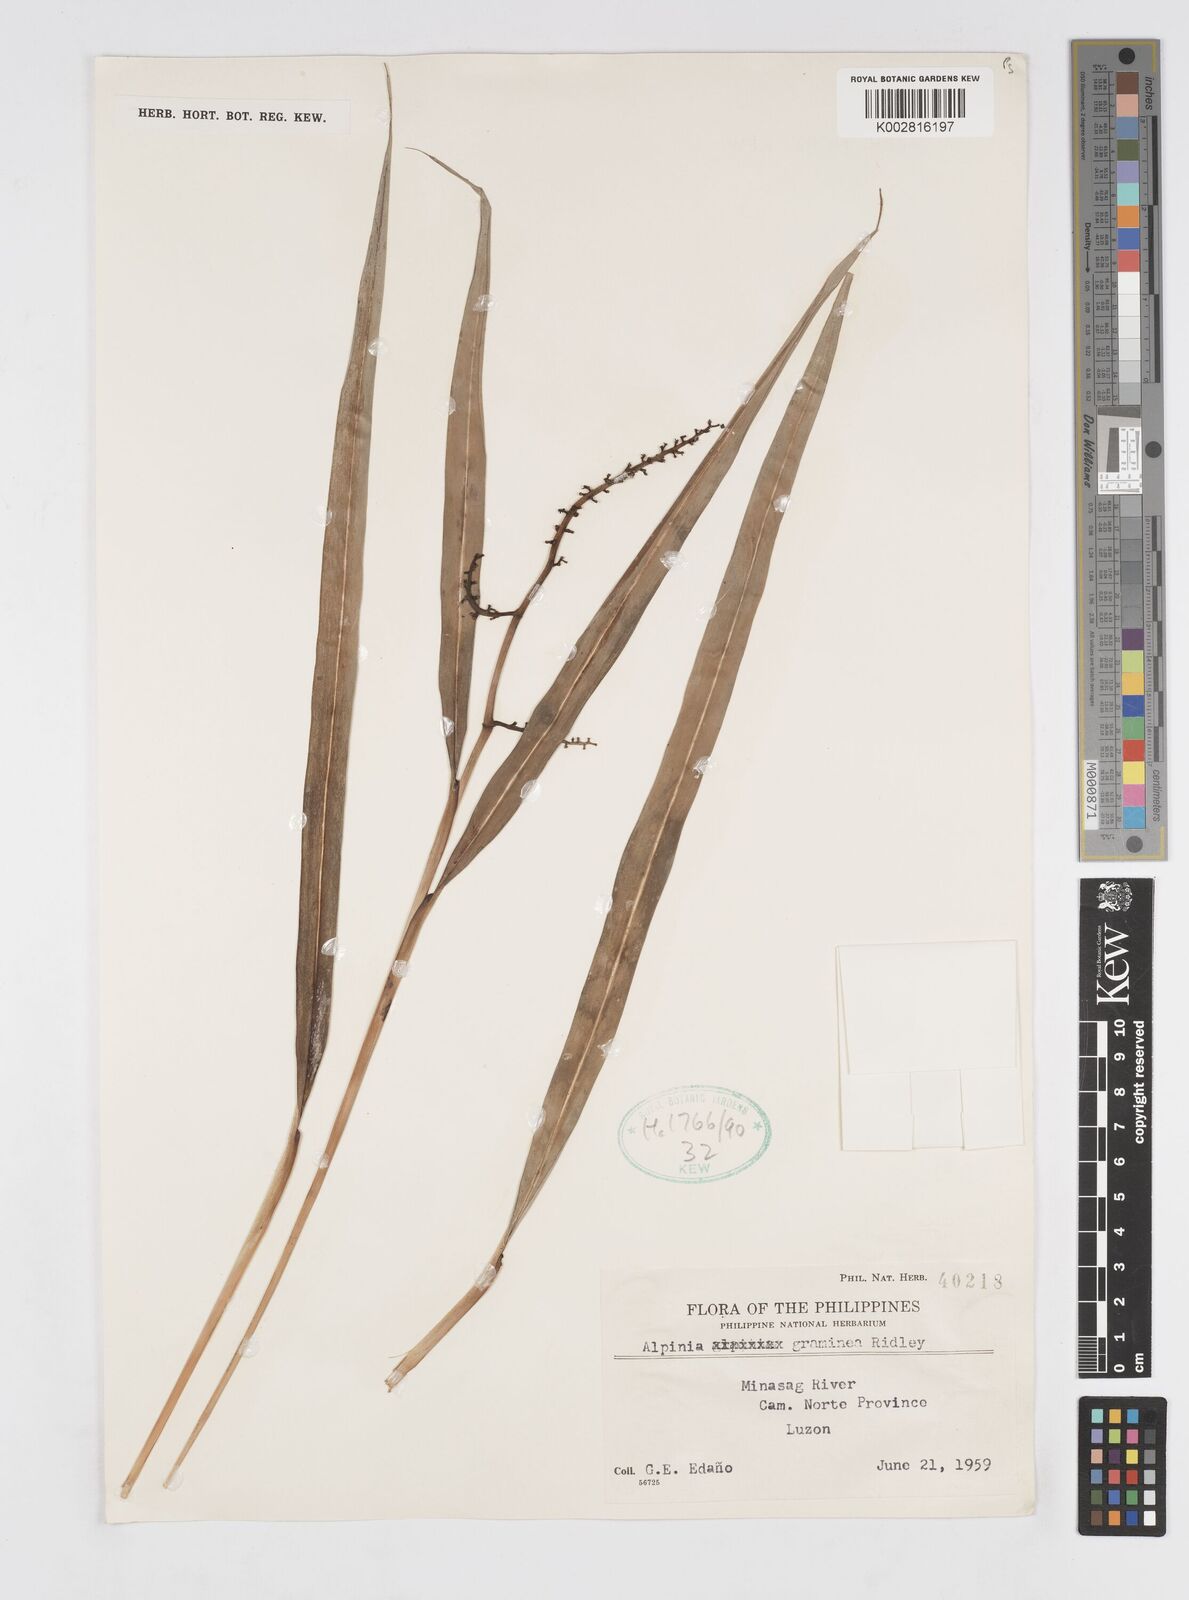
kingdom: Plantae
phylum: Tracheophyta
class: Liliopsida
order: Zingiberales
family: Zingiberaceae
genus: Alpinia
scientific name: Alpinia graminea
